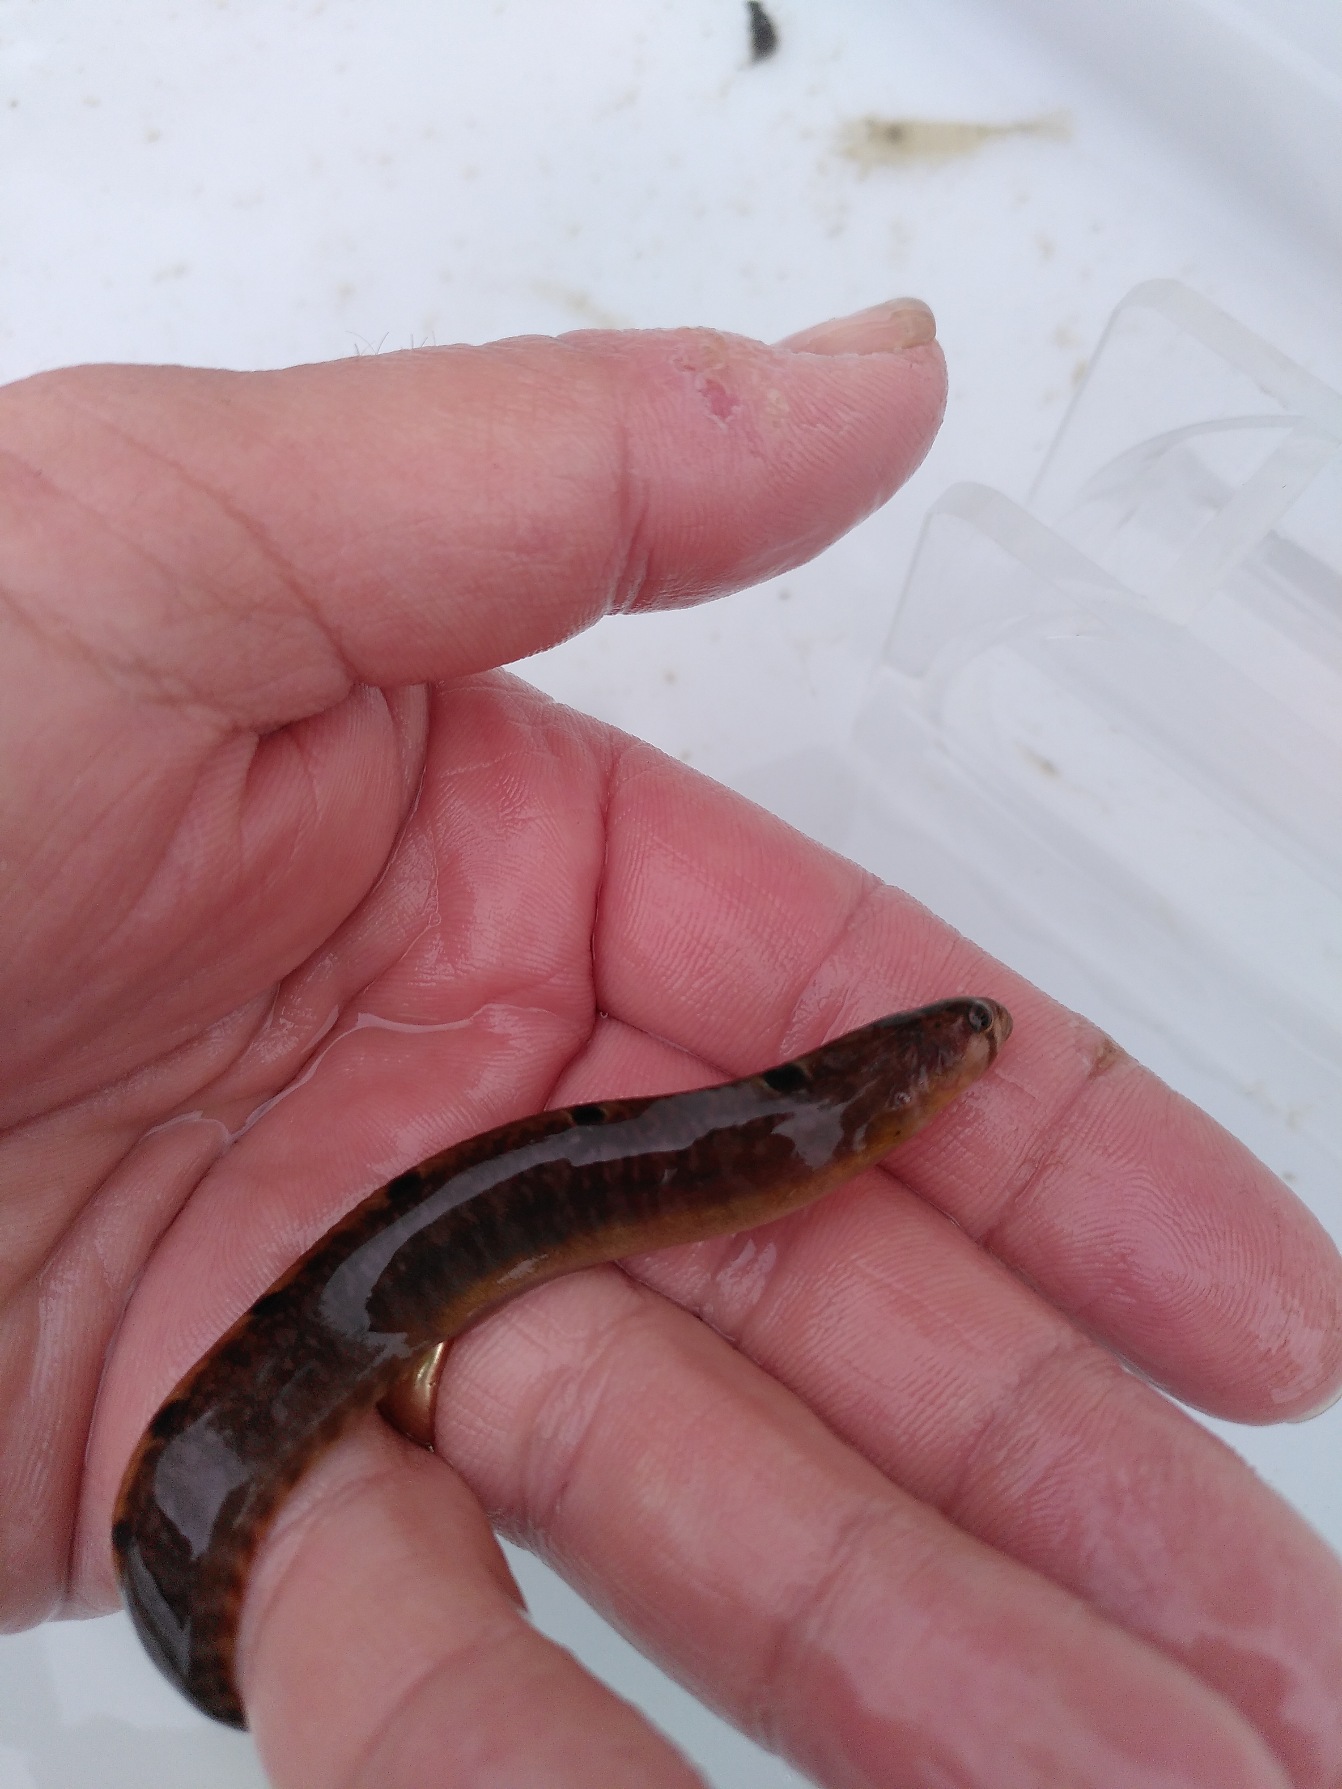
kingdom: Animalia
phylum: Chordata
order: Perciformes
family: Pholidae
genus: Pholis
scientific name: Pholis gunnellus
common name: Tangspræl
